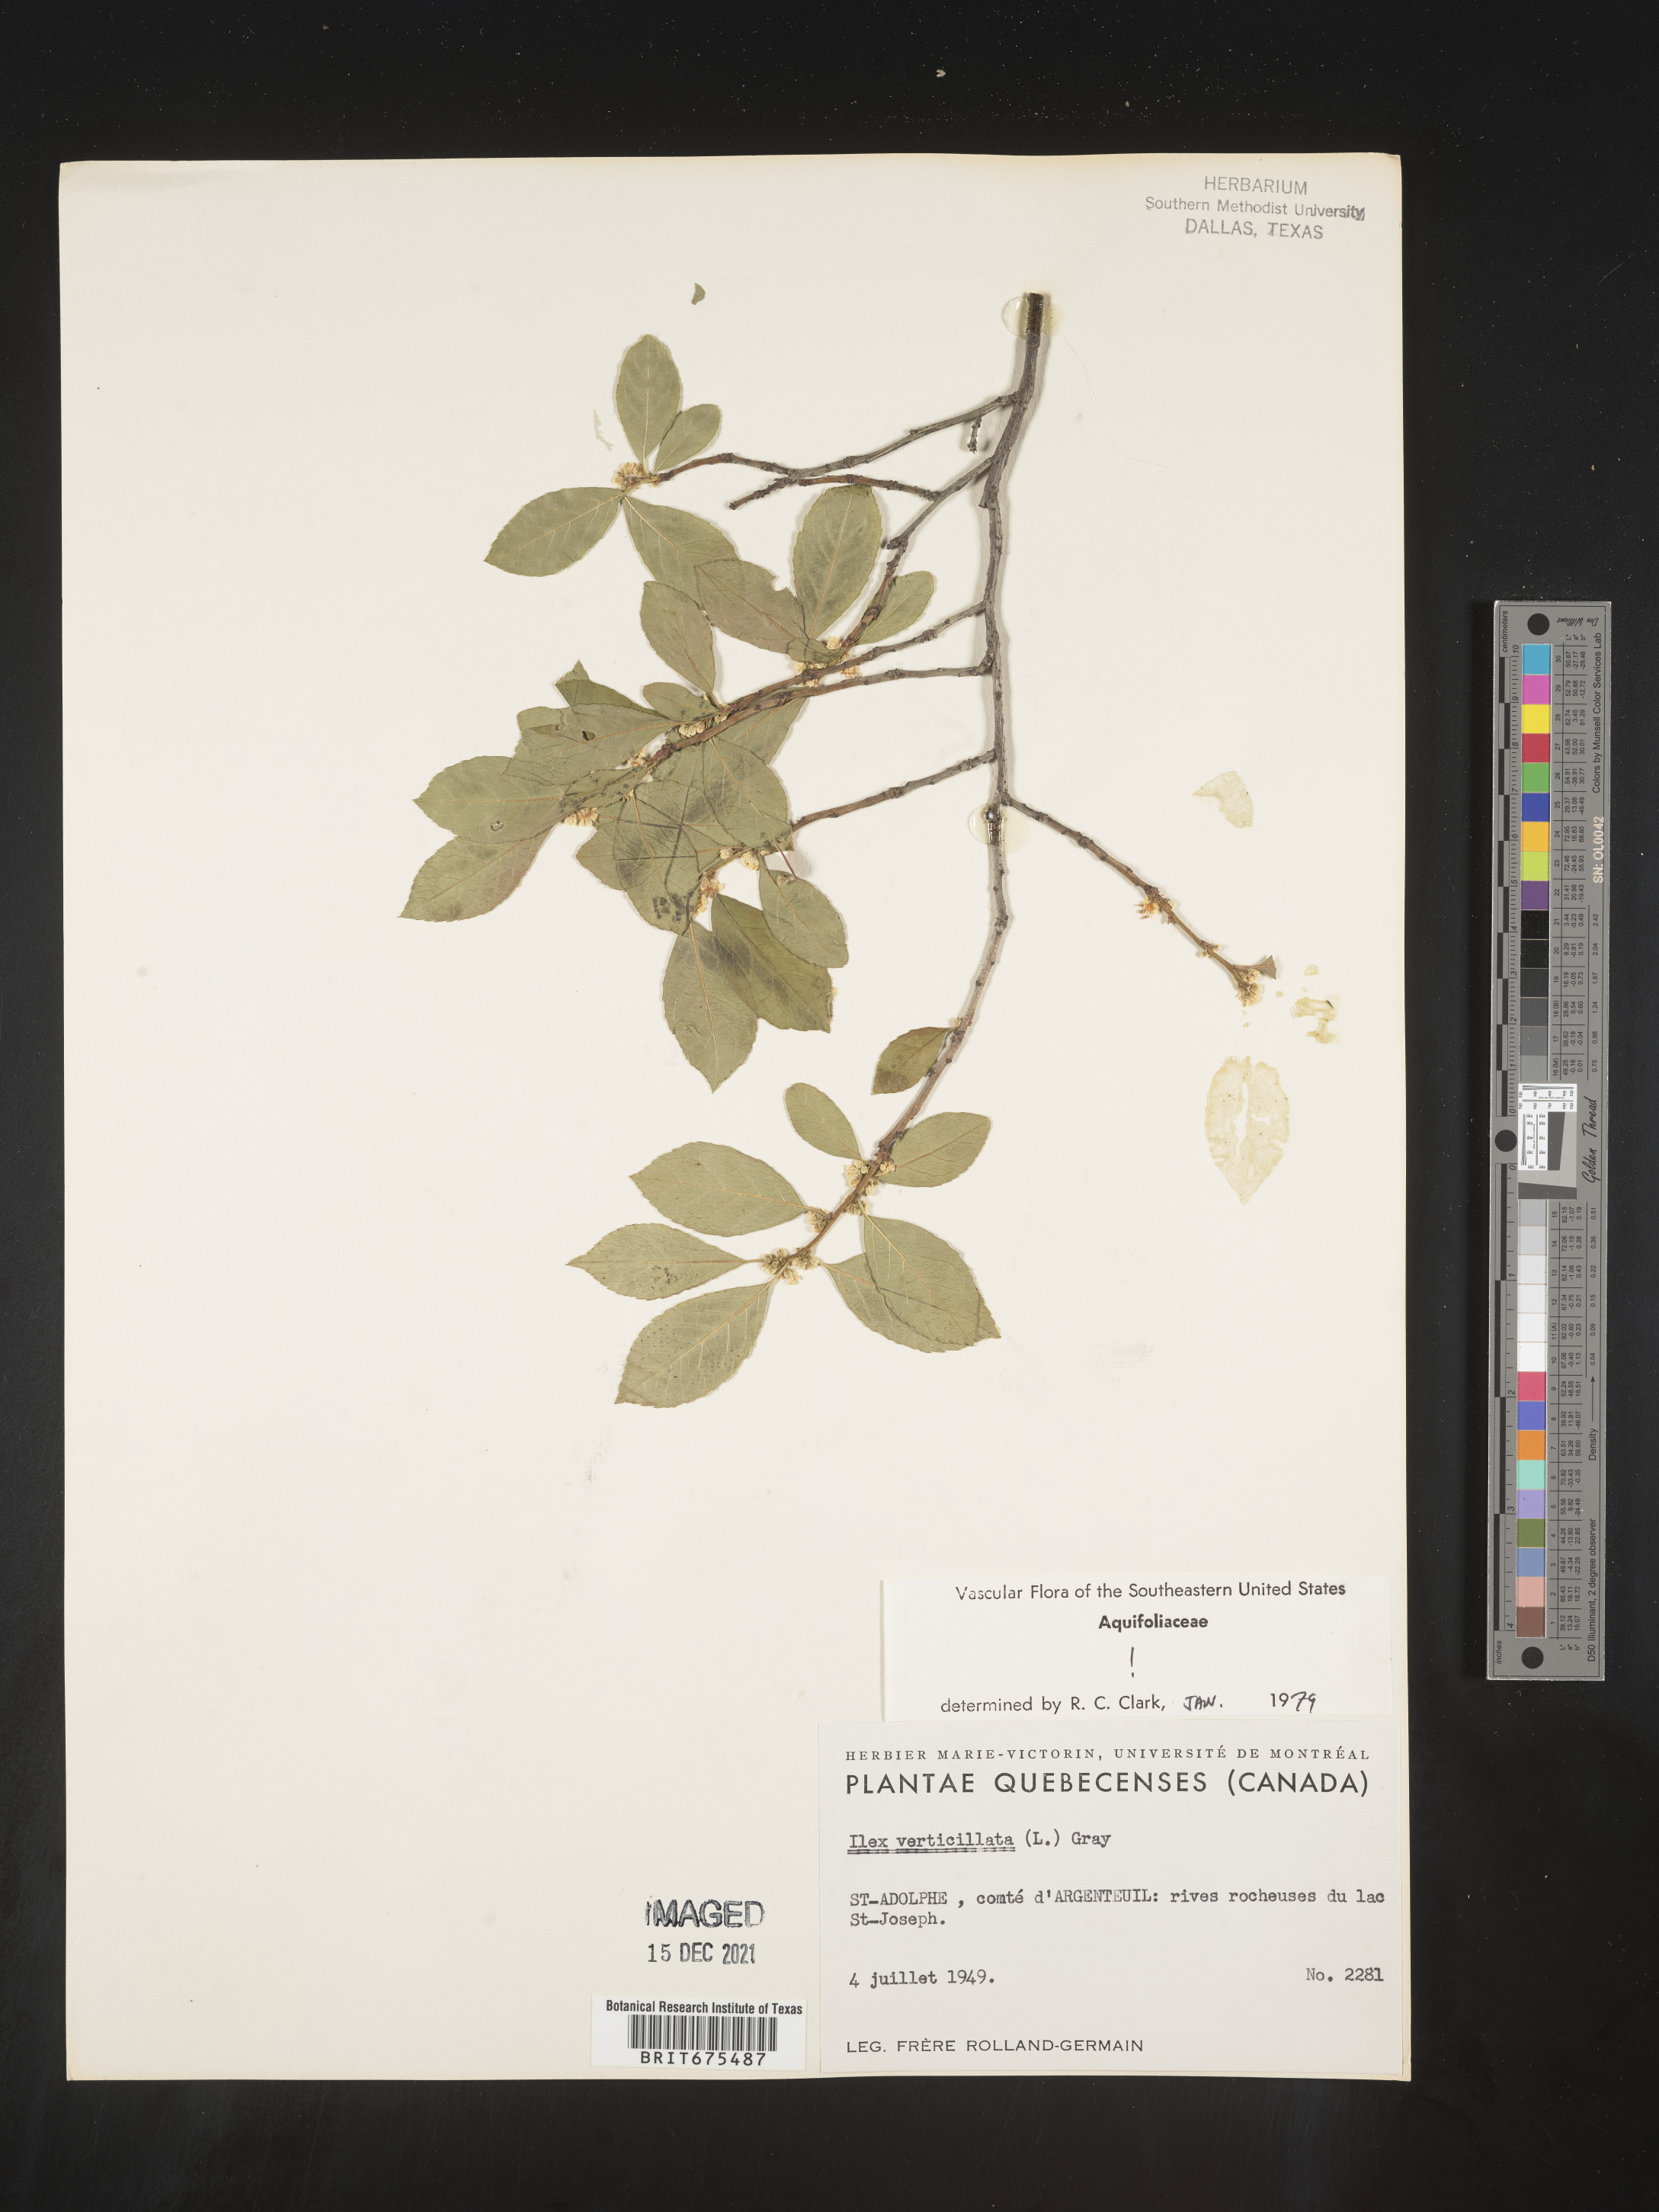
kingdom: Plantae
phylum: Tracheophyta
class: Magnoliopsida
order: Aquifoliales
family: Aquifoliaceae
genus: Ilex
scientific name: Ilex verticillata
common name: Virginia winterberry
